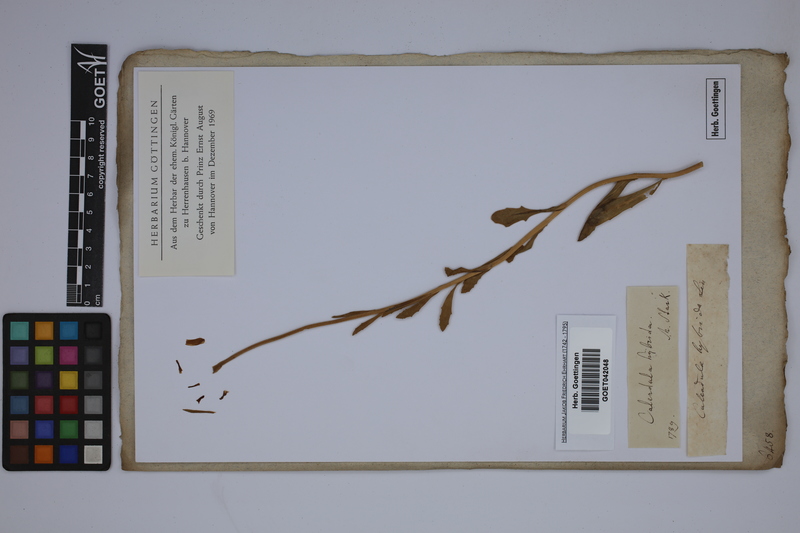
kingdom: Plantae
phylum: Tracheophyta
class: Magnoliopsida
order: Asterales
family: Asteraceae
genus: Dimorphotheca
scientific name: Dimorphotheca pluvialis
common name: Weather prophet
